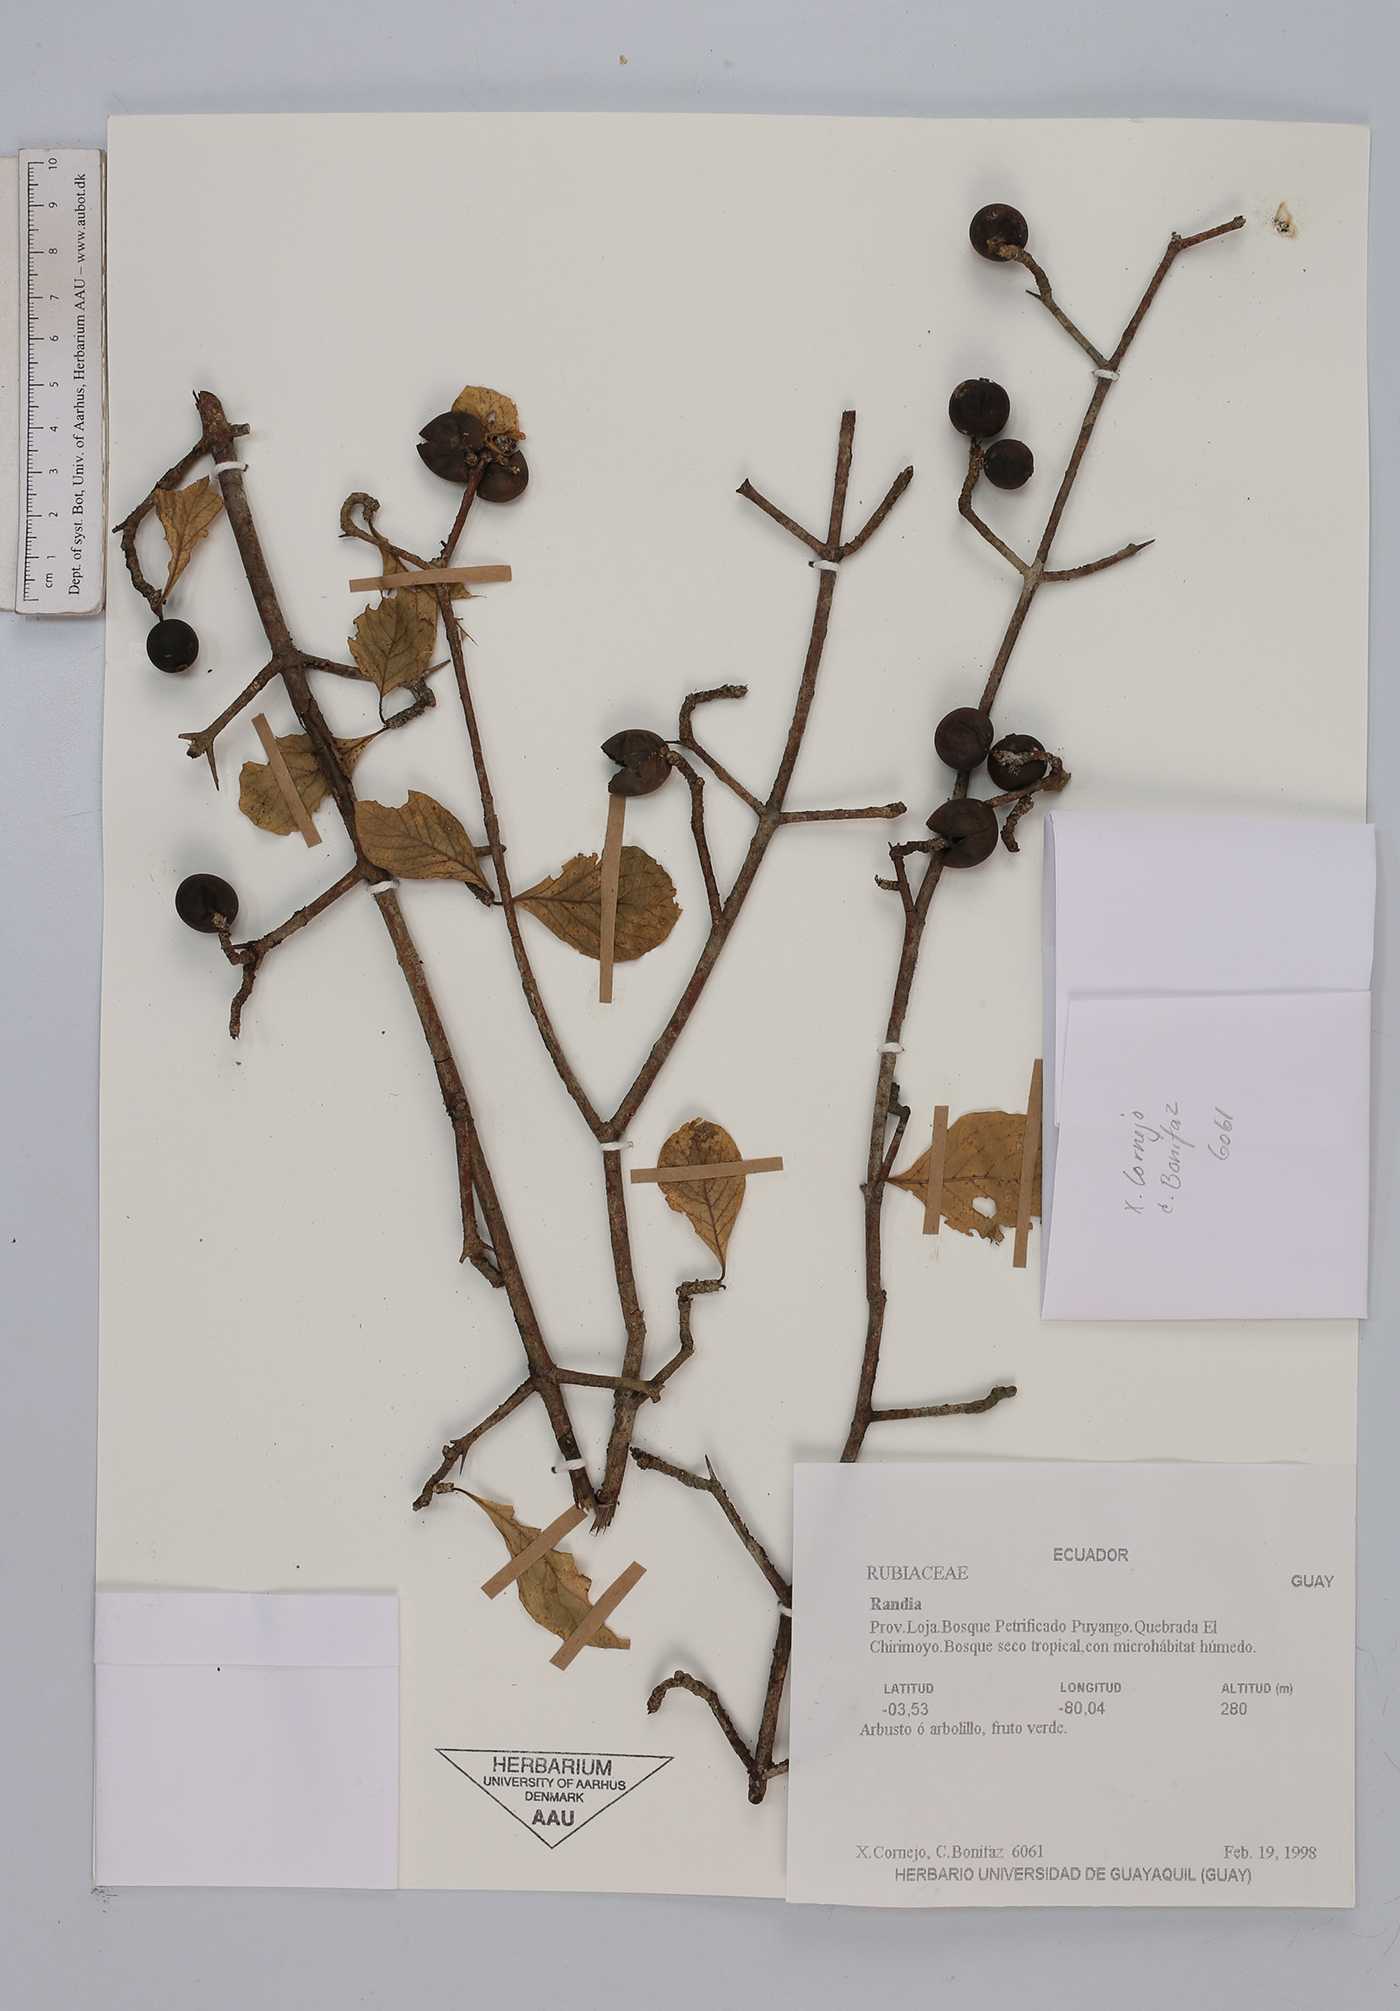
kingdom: Plantae
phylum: Tracheophyta
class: Magnoliopsida
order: Gentianales
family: Rubiaceae
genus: Randia
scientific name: Randia
